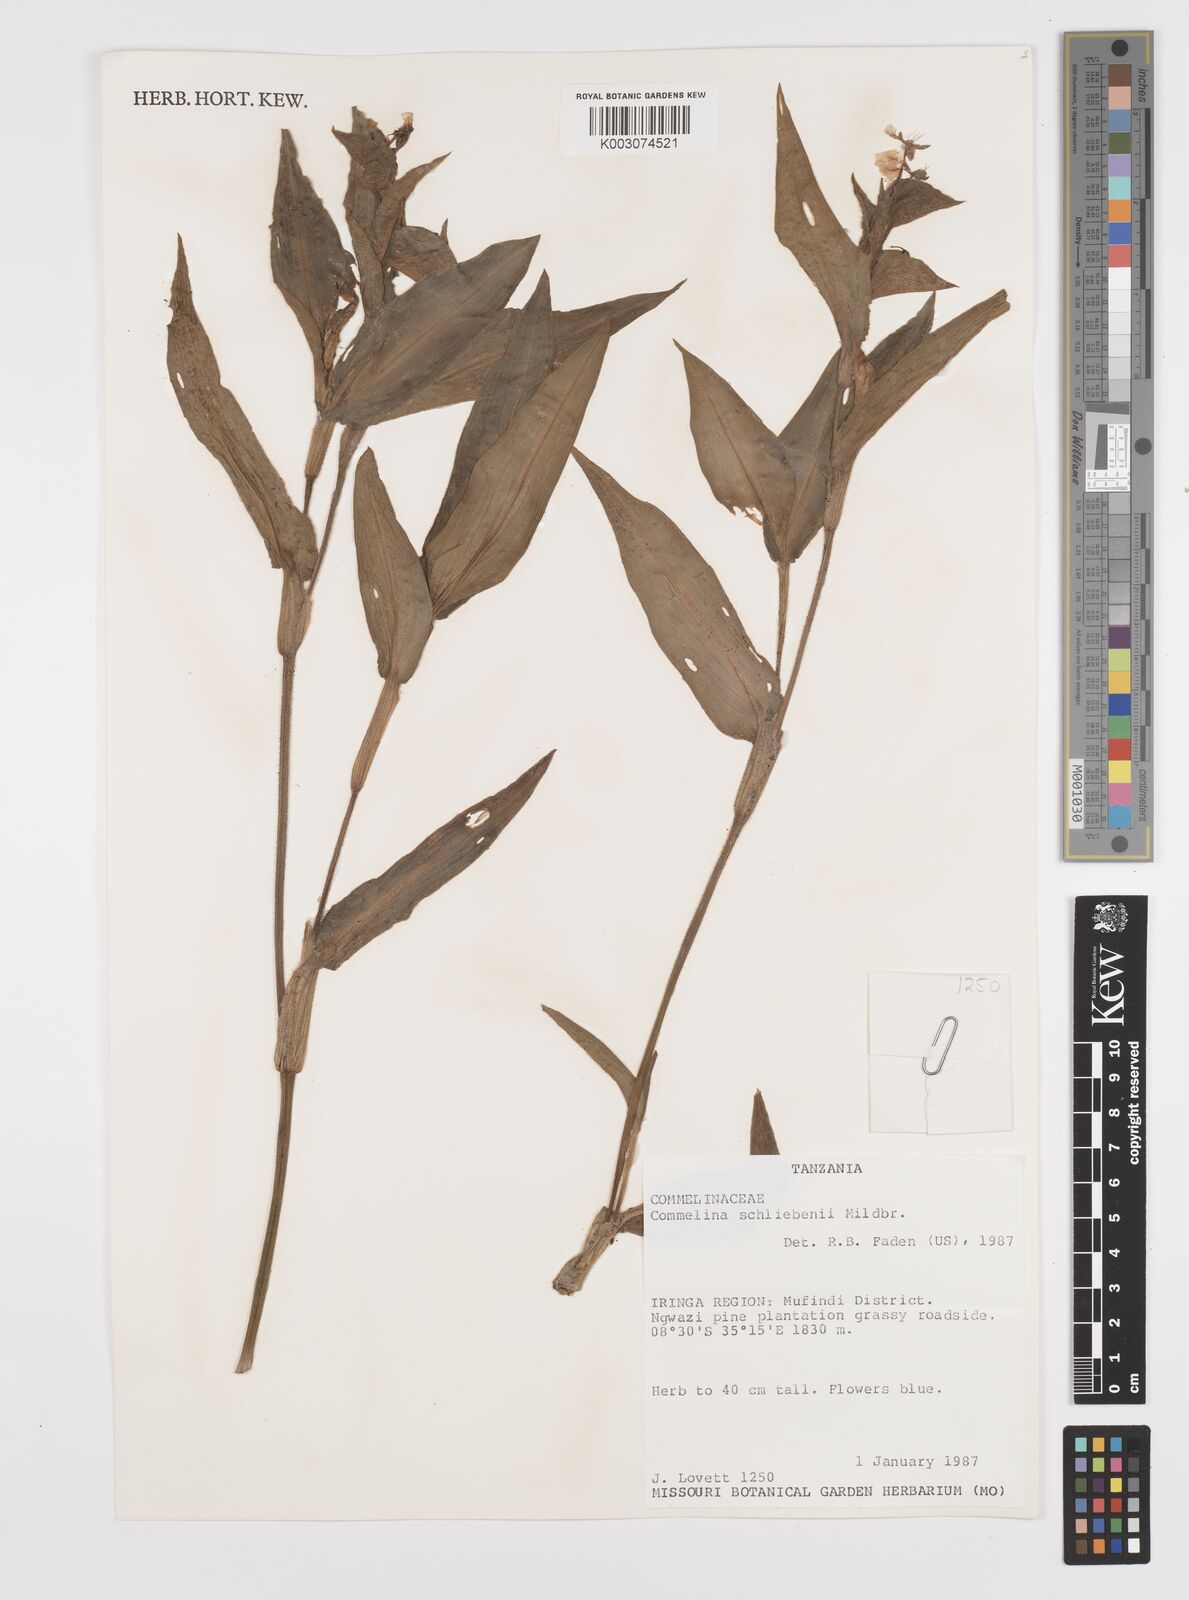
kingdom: Plantae
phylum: Tracheophyta
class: Liliopsida
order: Commelinales
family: Commelinaceae
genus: Commelina
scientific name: Commelina schliebenii
